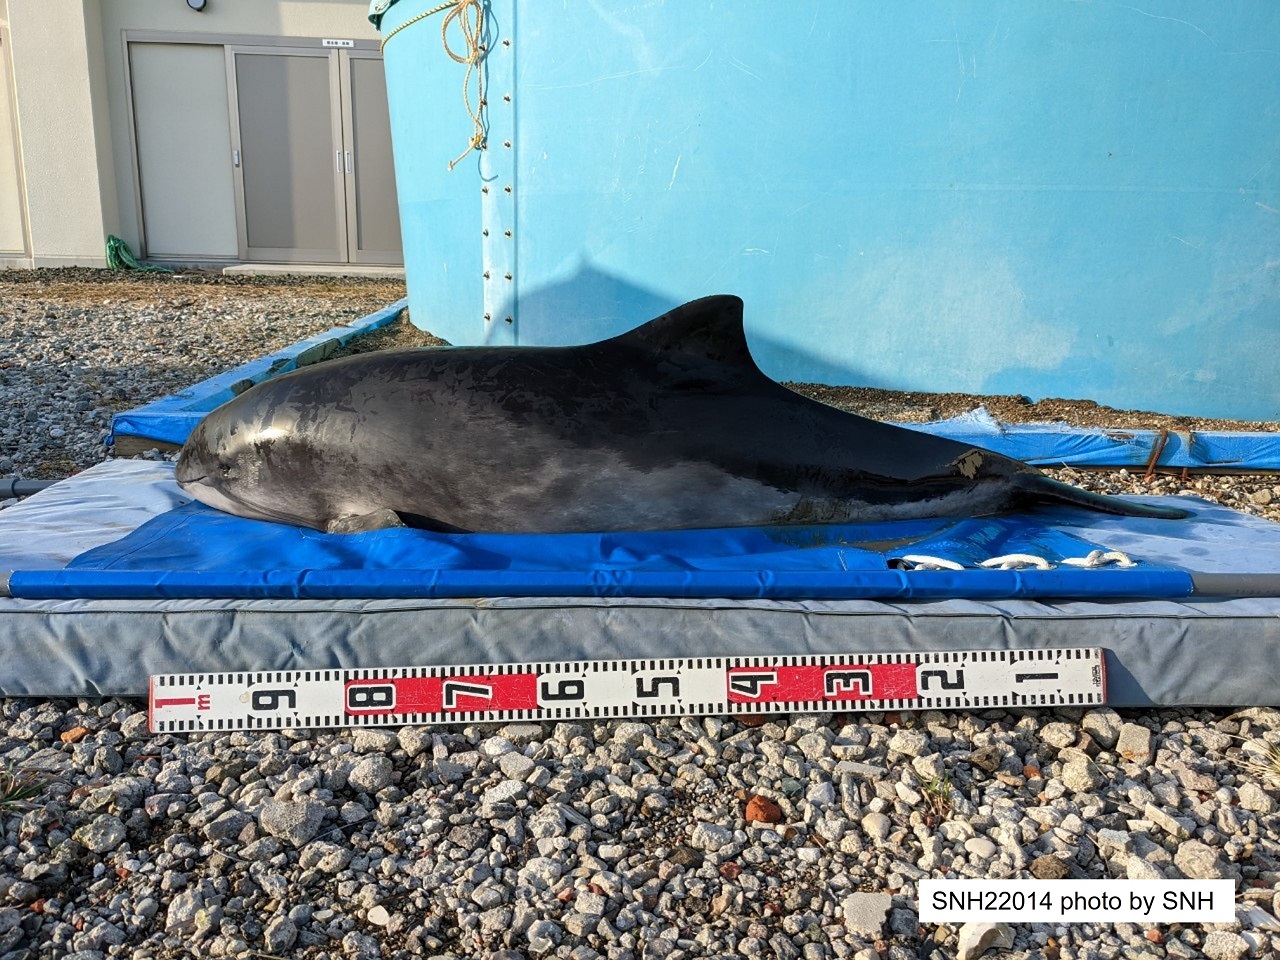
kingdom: Animalia
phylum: Chordata
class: Mammalia
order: Cetacea
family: Phocoenidae
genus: Phocoena
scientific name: Phocoena phocoena
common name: Harbour porpoise
